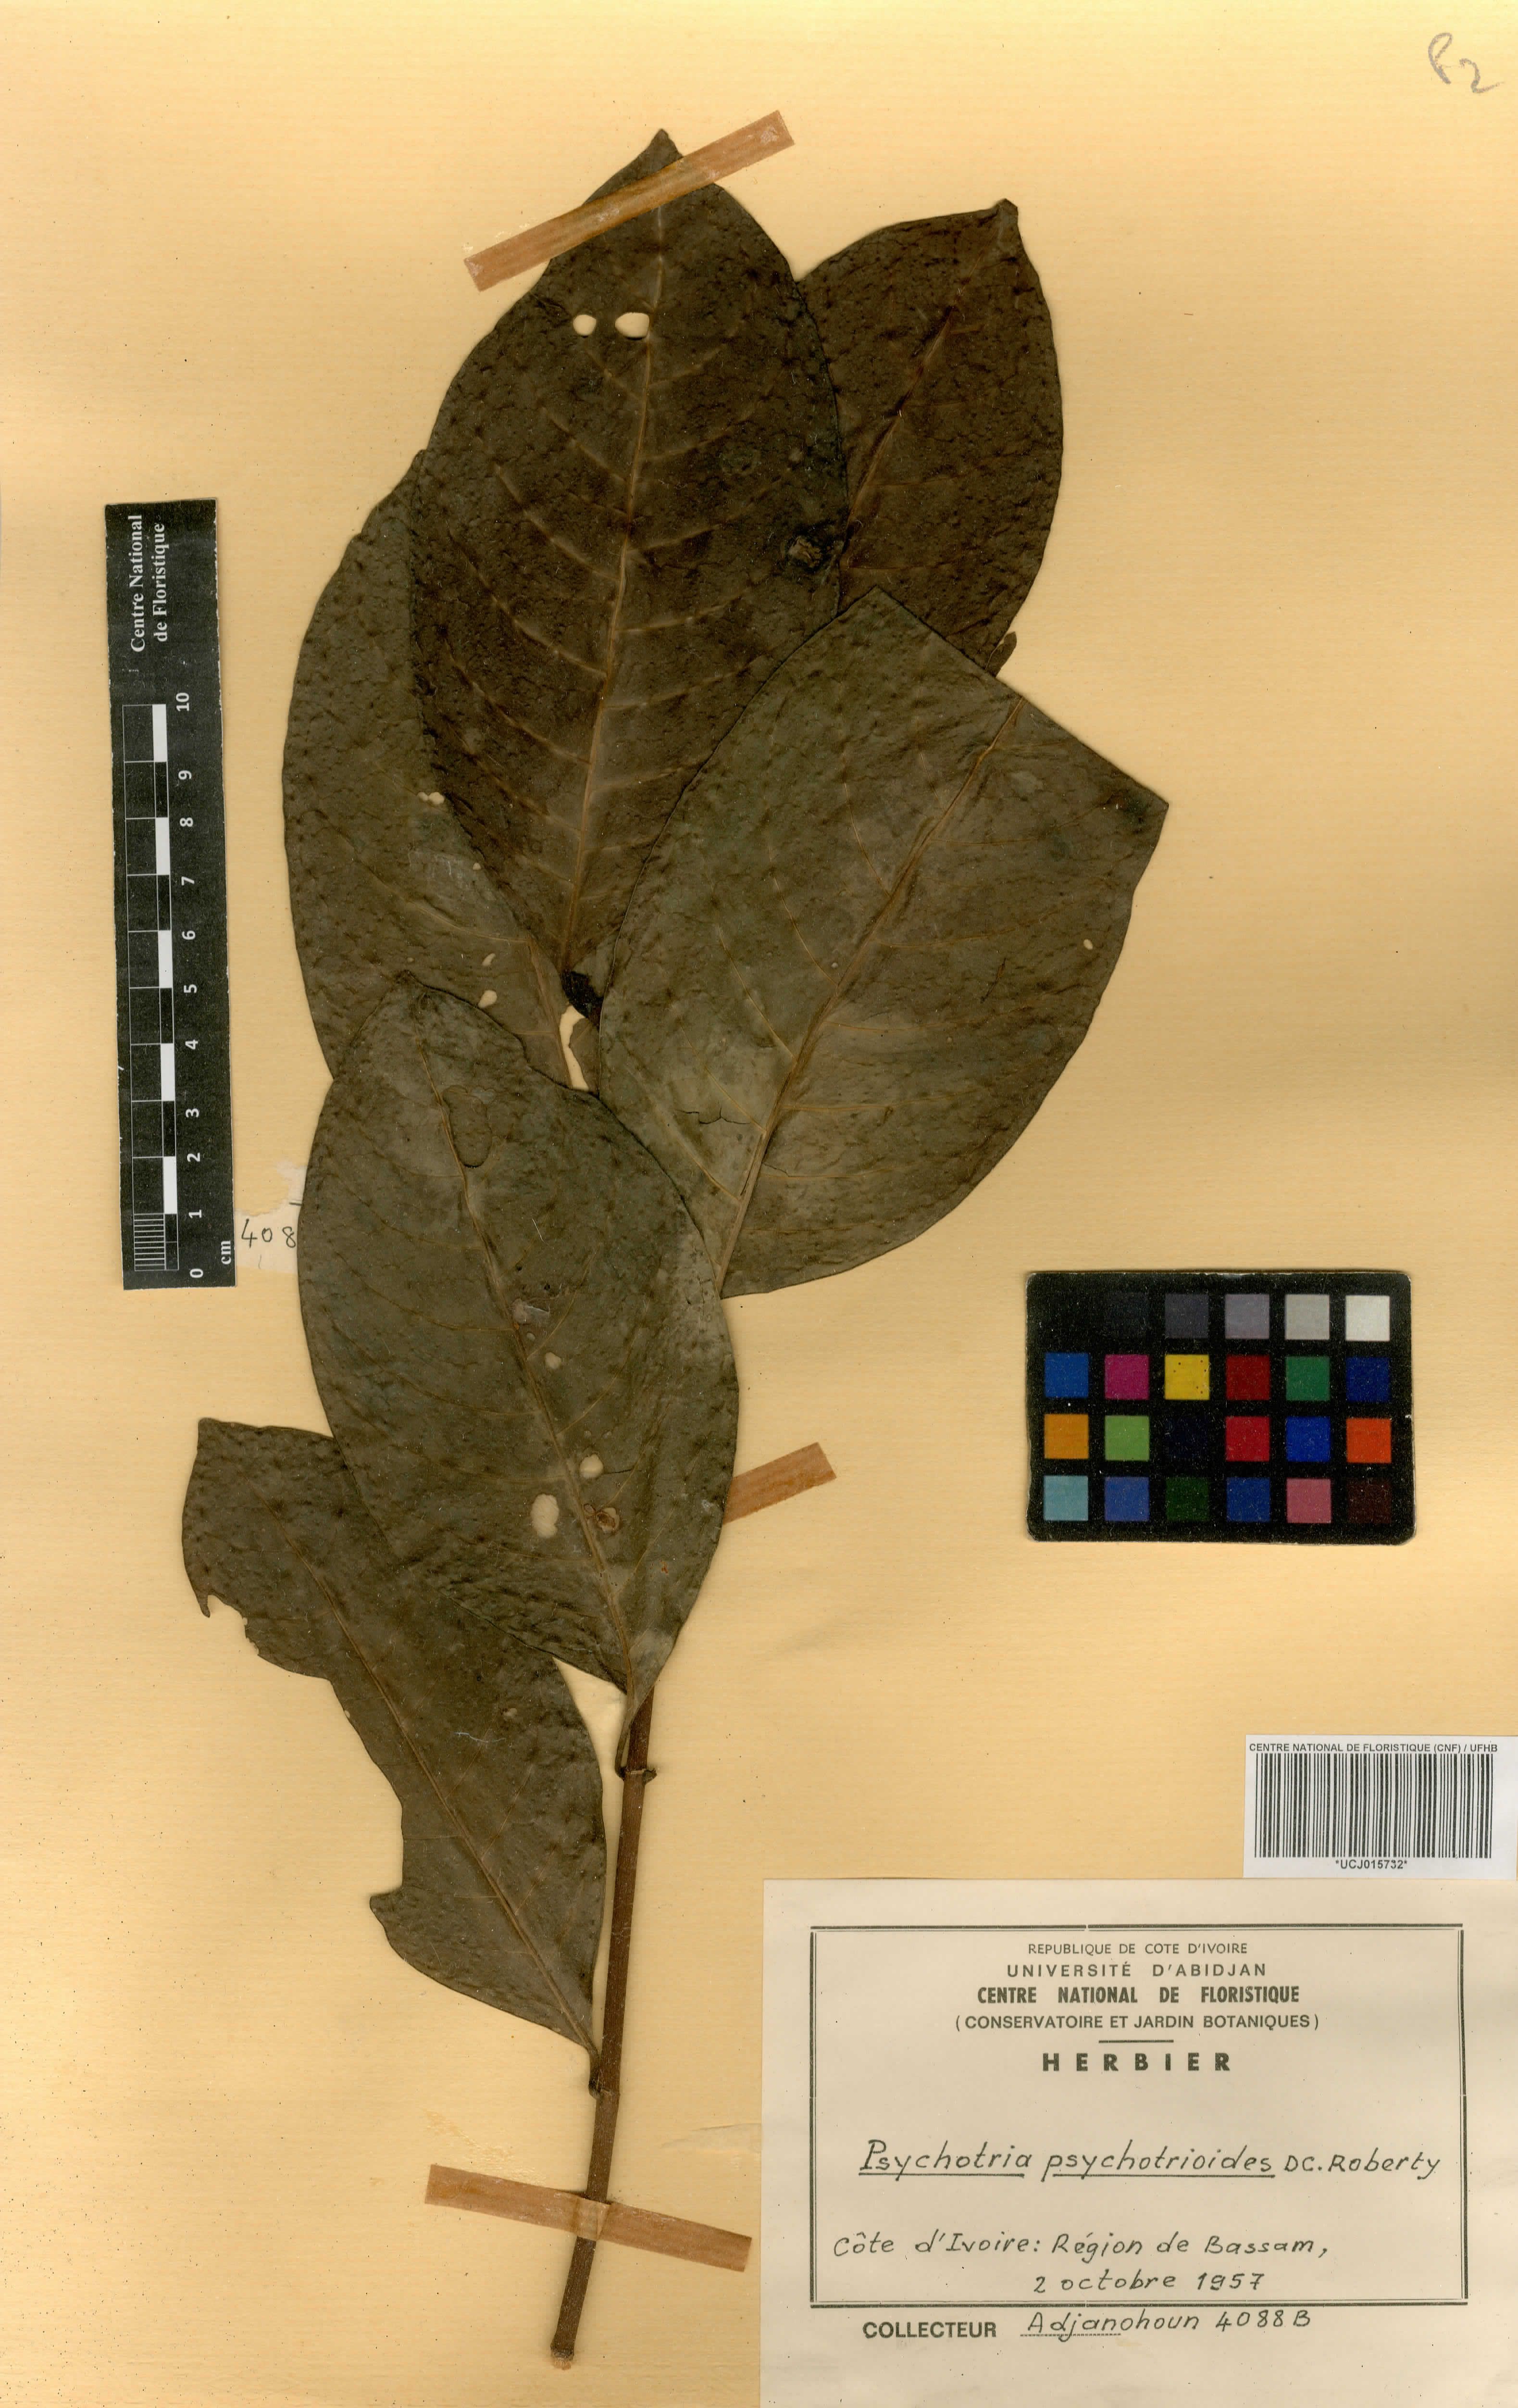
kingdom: Plantae
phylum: Tracheophyta
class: Magnoliopsida
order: Gentianales
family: Rubiaceae
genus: Psychotria
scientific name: Psychotria psychotrioides
